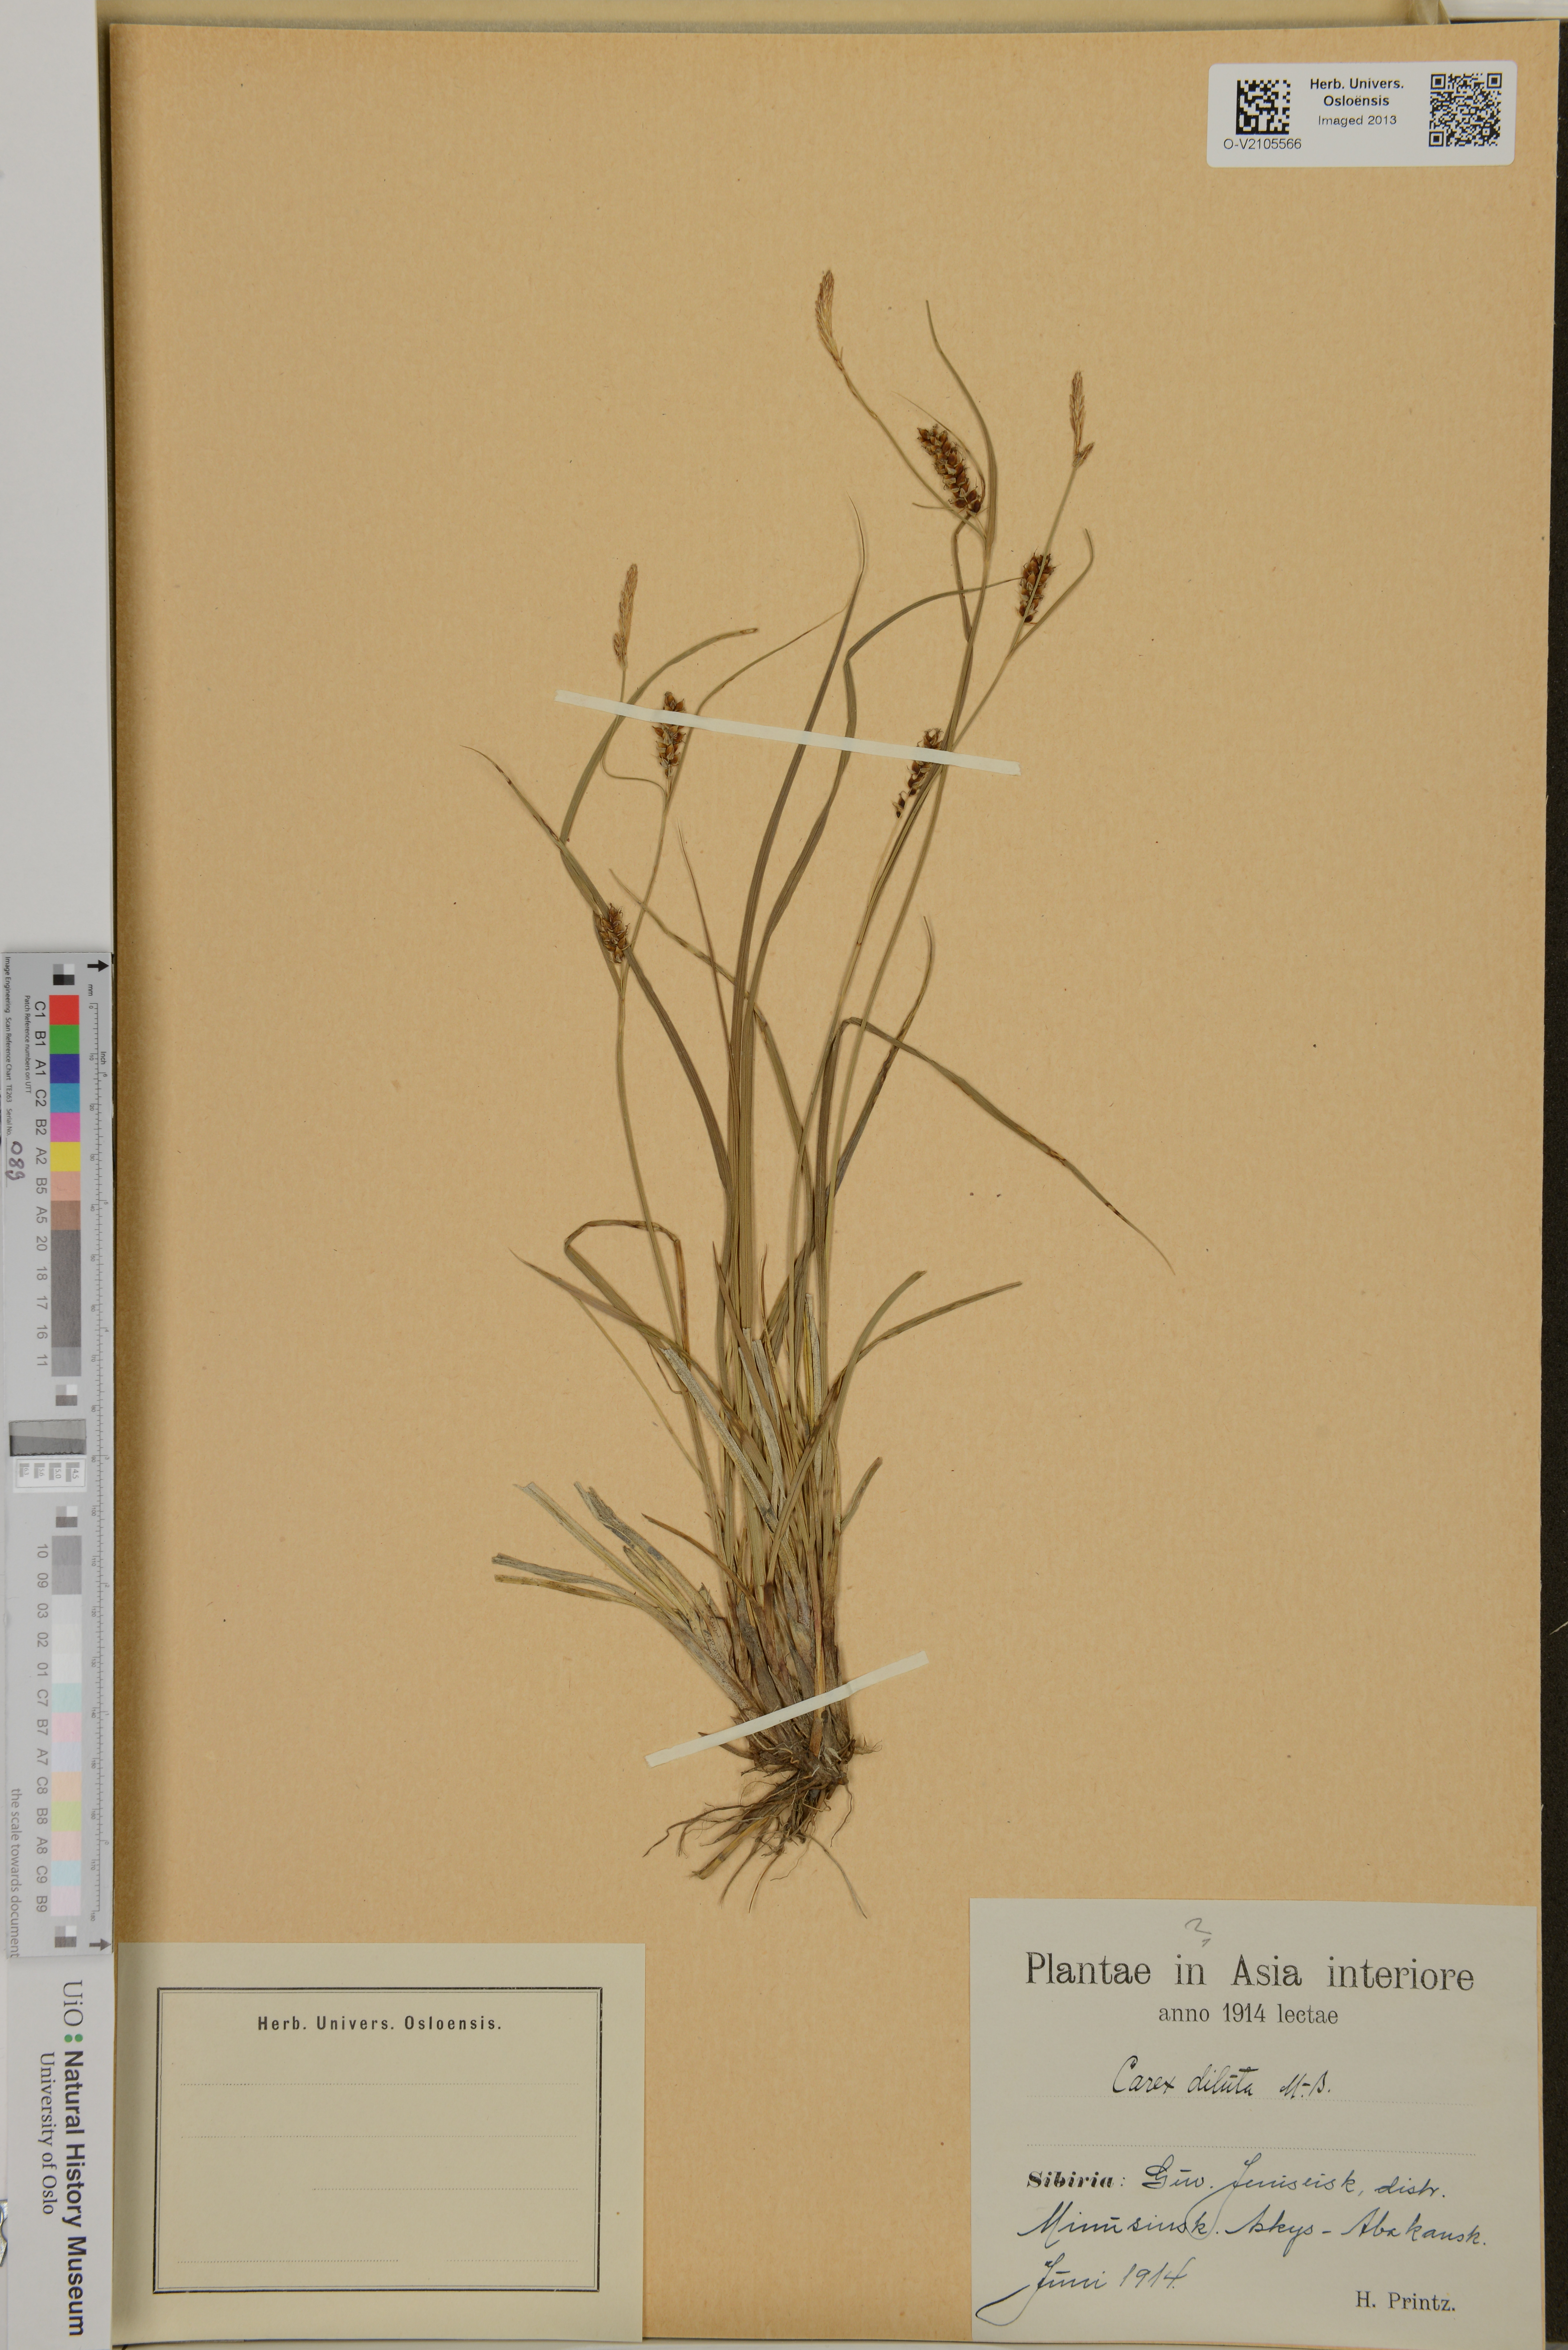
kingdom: Plantae
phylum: Tracheophyta
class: Liliopsida
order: Poales
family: Cyperaceae
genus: Carex
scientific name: Carex diluta
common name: Sedge
